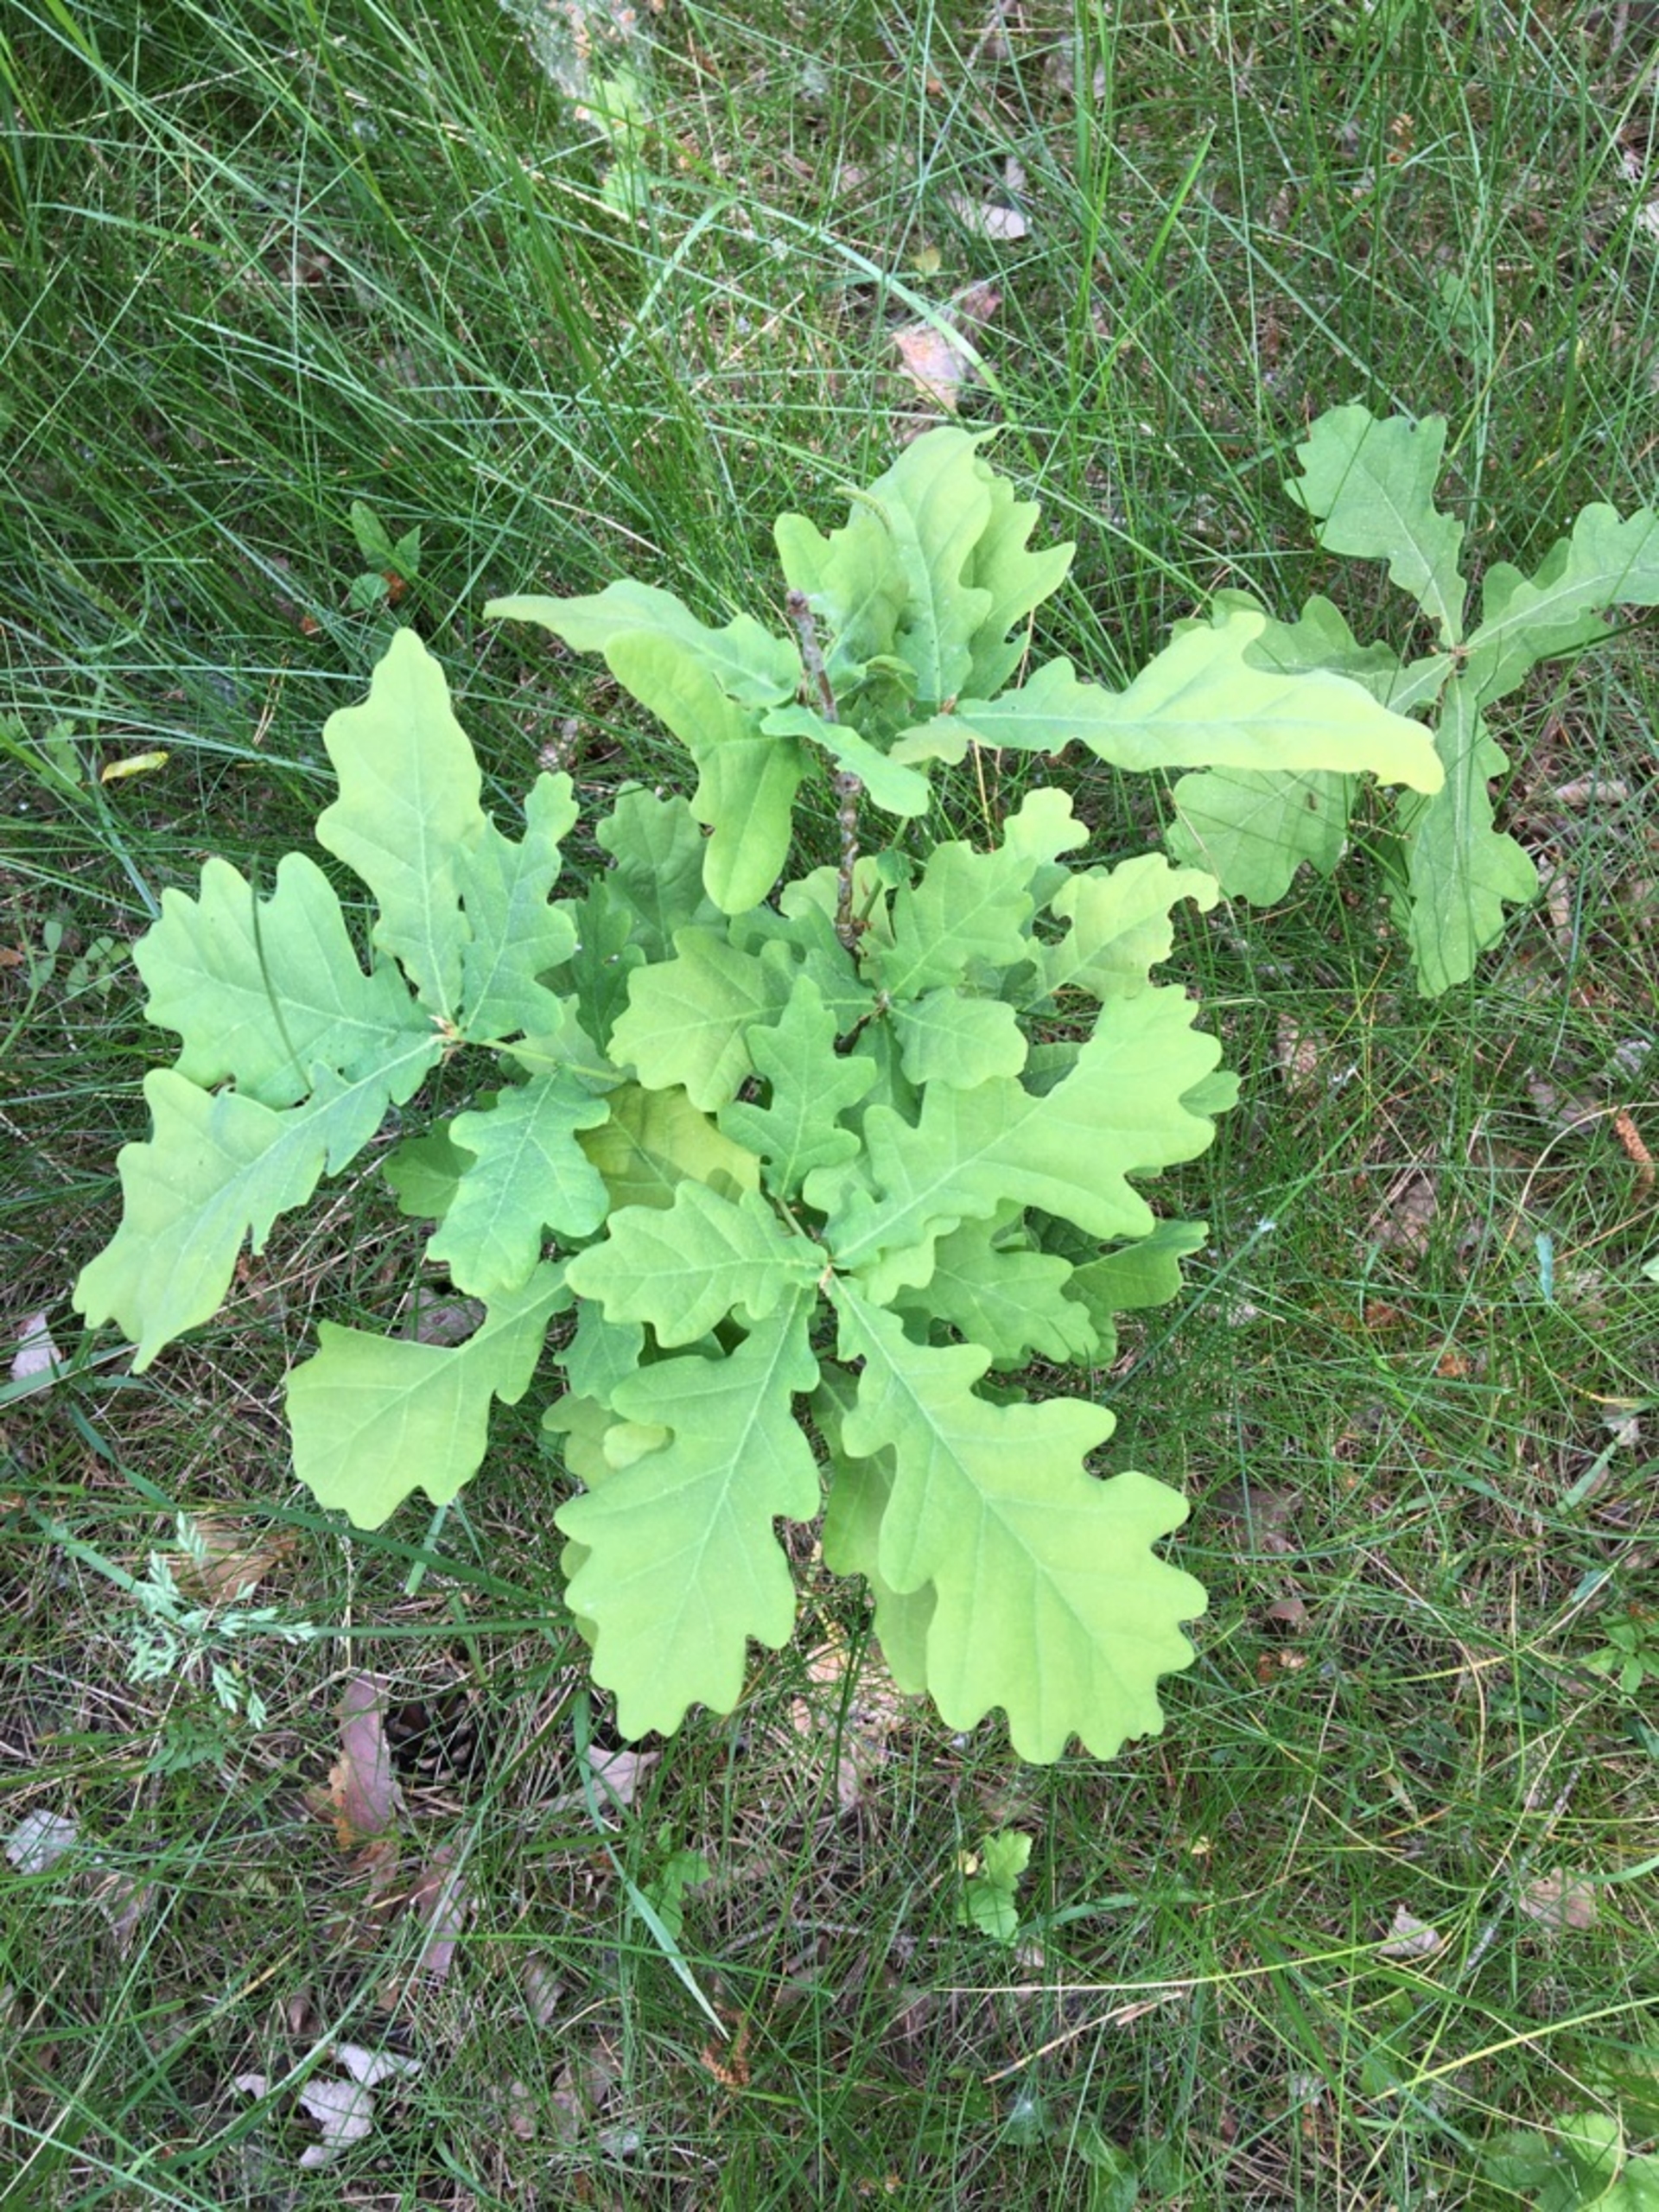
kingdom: Plantae
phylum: Tracheophyta
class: Magnoliopsida
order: Fagales
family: Fagaceae
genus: Quercus
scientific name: Quercus robur
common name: Stilk-eg/almindelig eg
